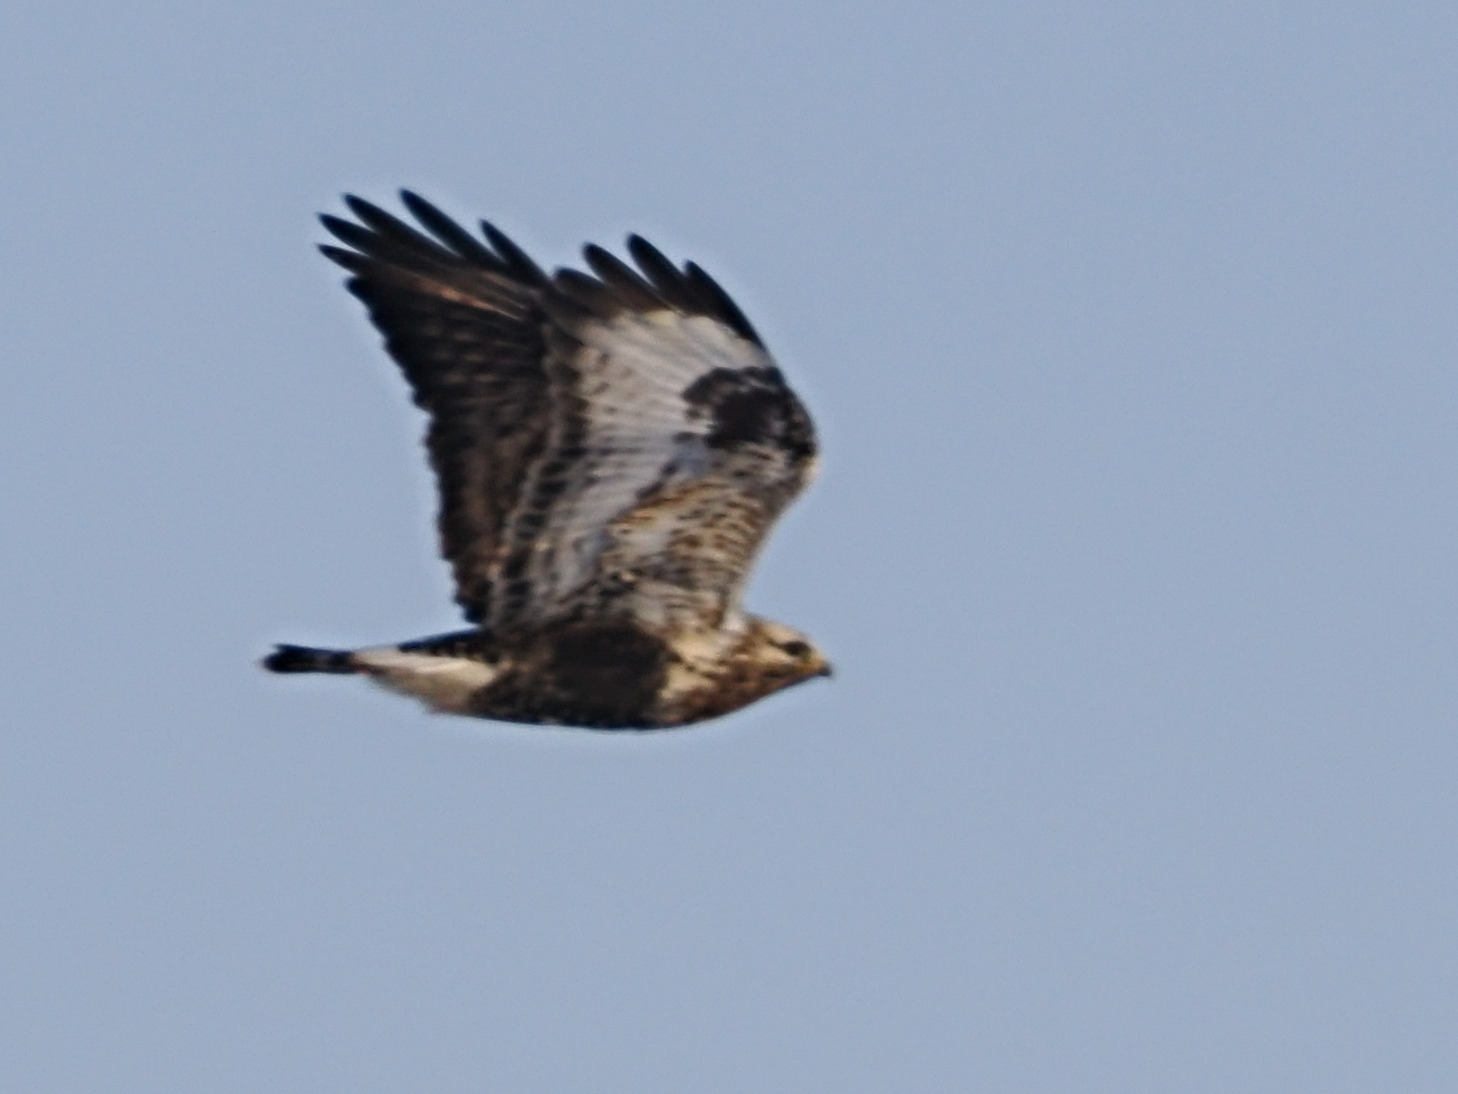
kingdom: Animalia
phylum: Chordata
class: Aves
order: Accipitriformes
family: Accipitridae
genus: Buteo
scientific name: Buteo lagopus
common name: Fjeldvåge
